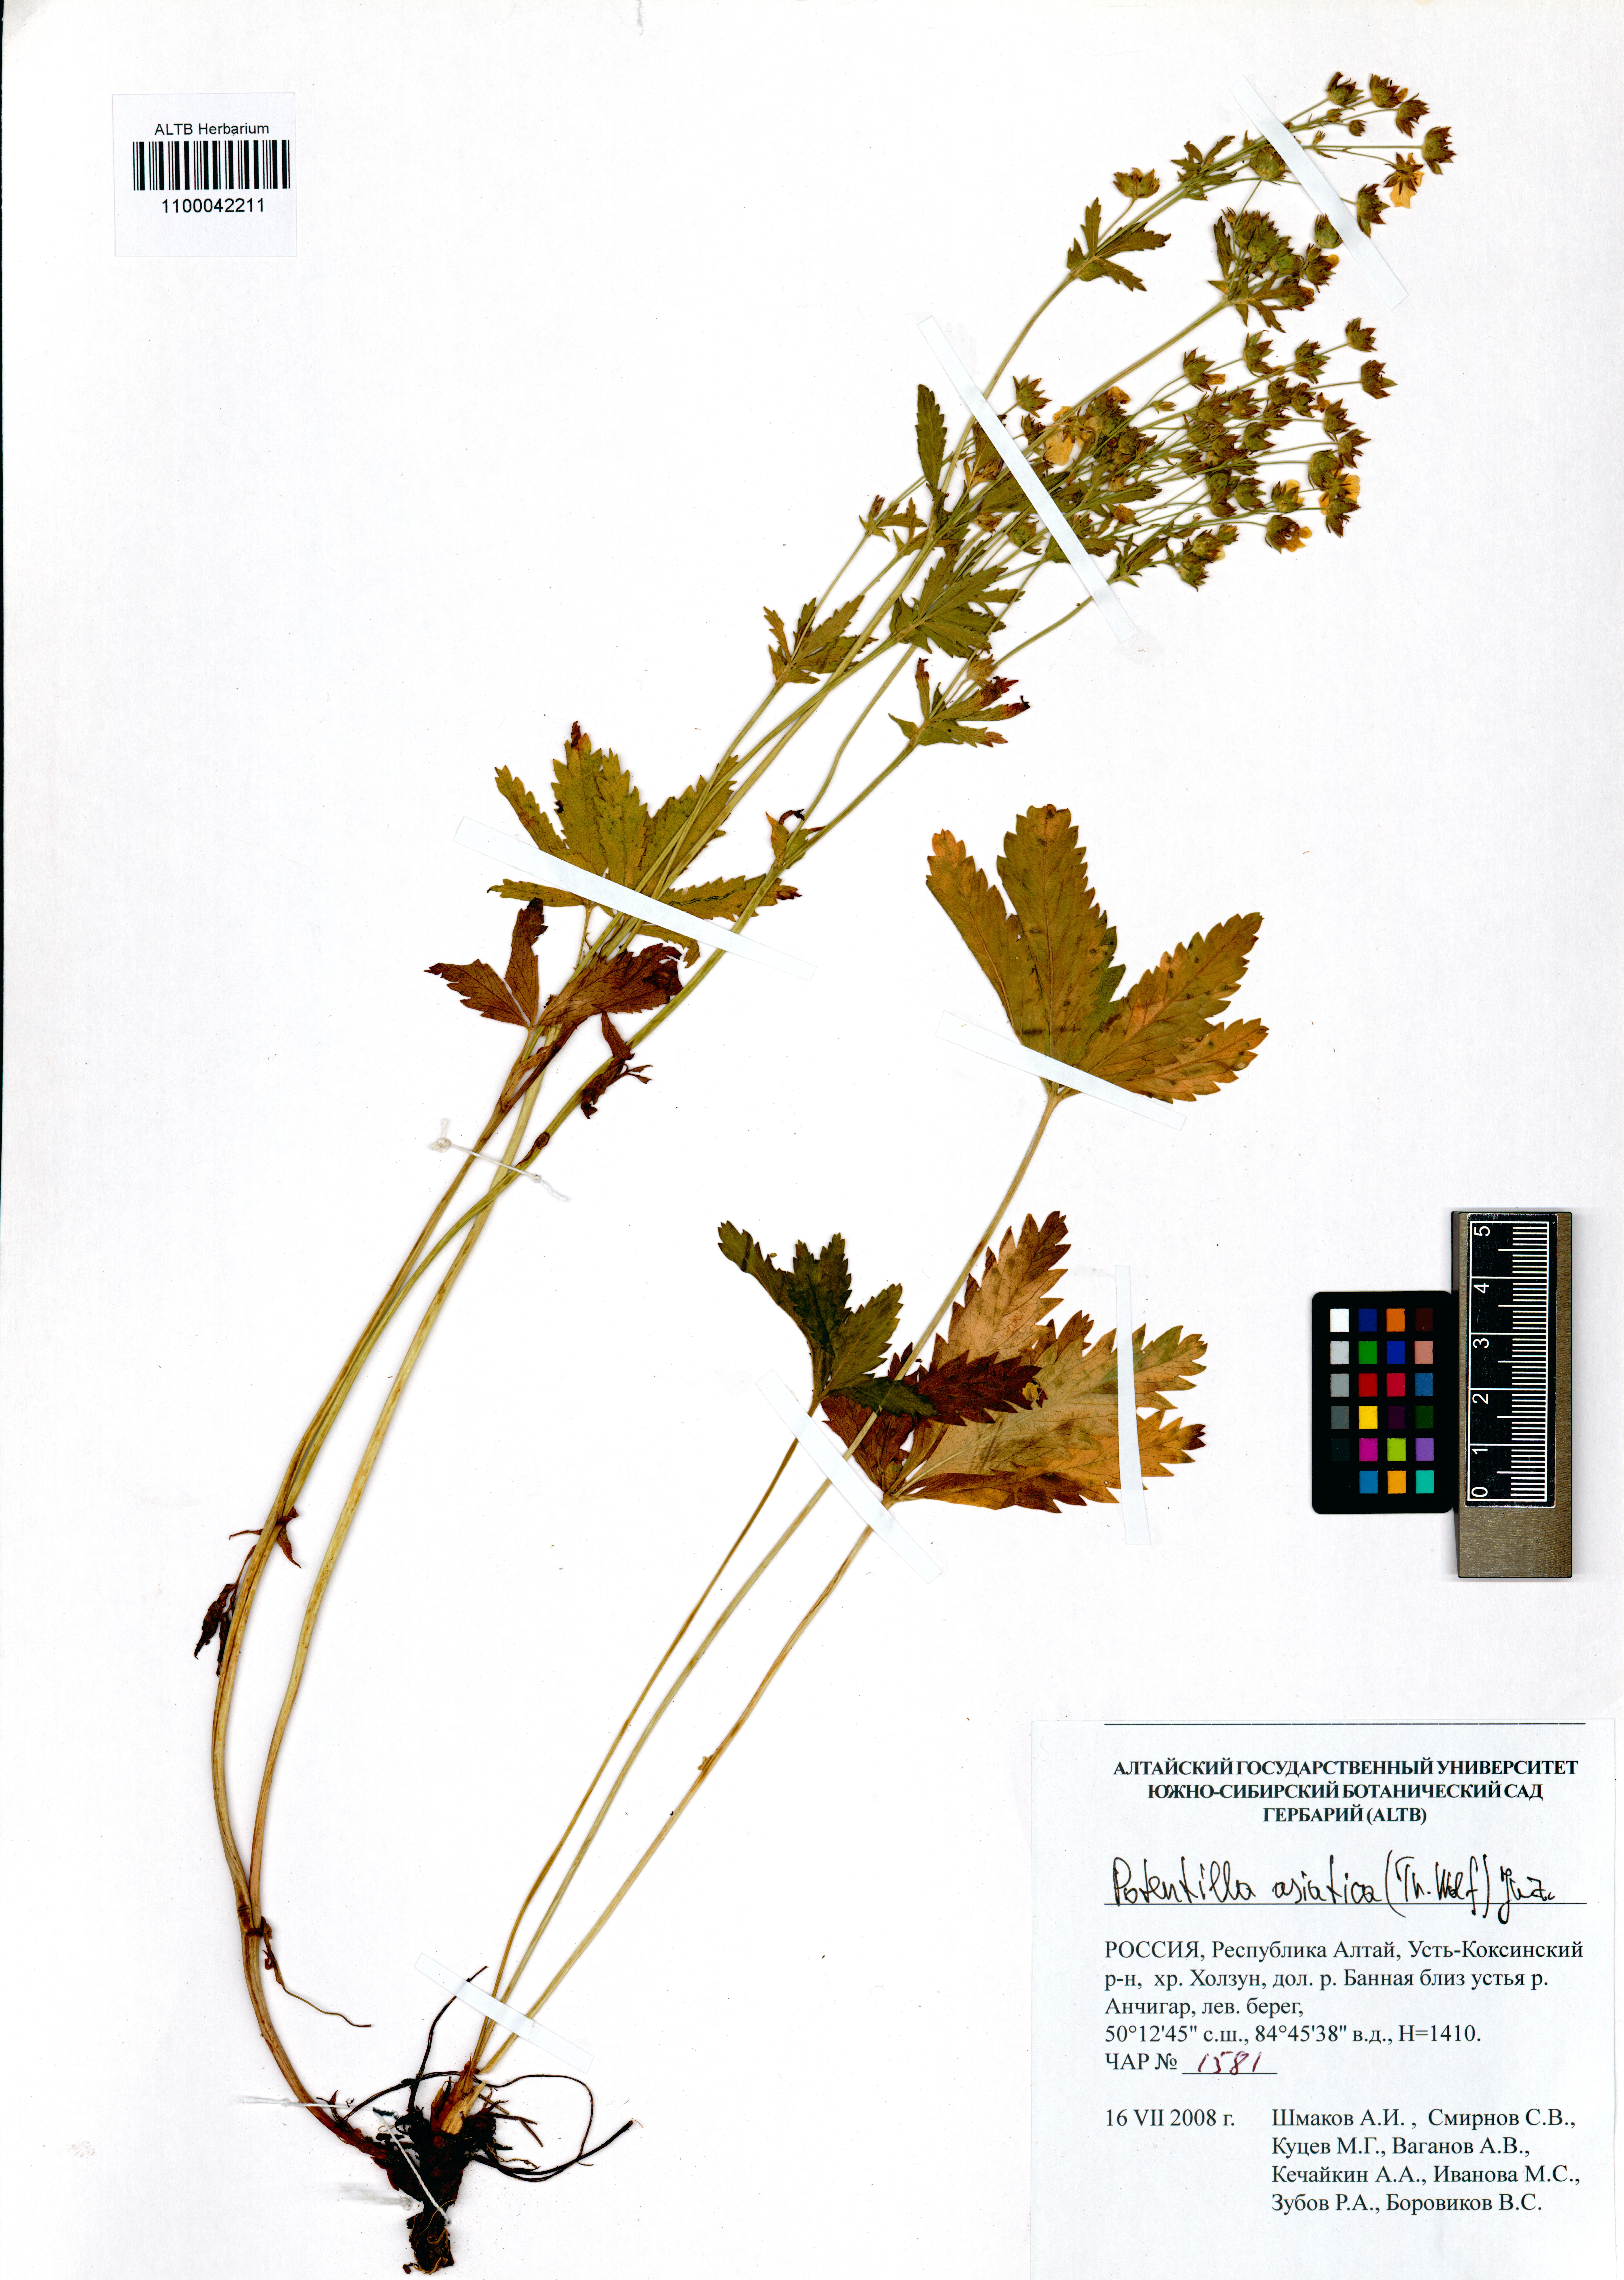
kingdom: Plantae
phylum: Tracheophyta
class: Magnoliopsida
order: Rosales
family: Rosaceae
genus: Potentilla
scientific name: Potentilla asiatica
